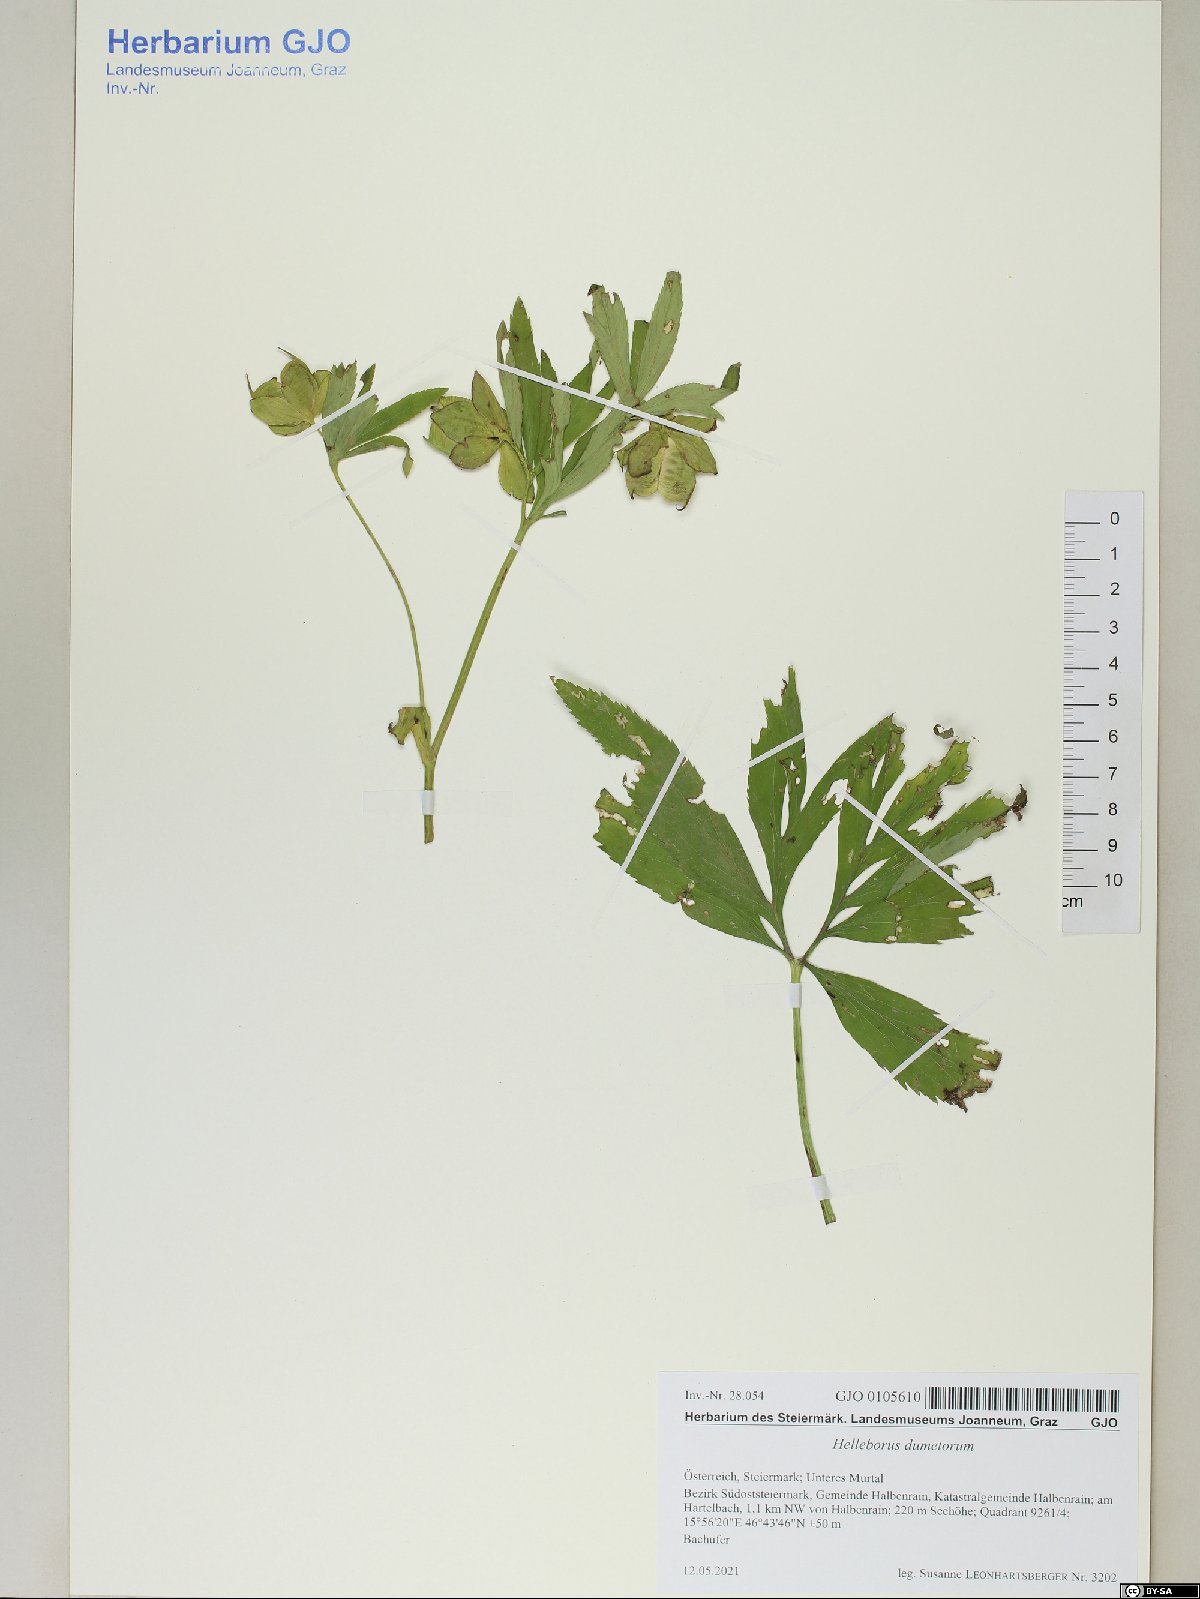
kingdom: Plantae
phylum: Tracheophyta
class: Magnoliopsida
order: Ranunculales
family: Ranunculaceae
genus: Helleborus
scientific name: Helleborus dumetorum
